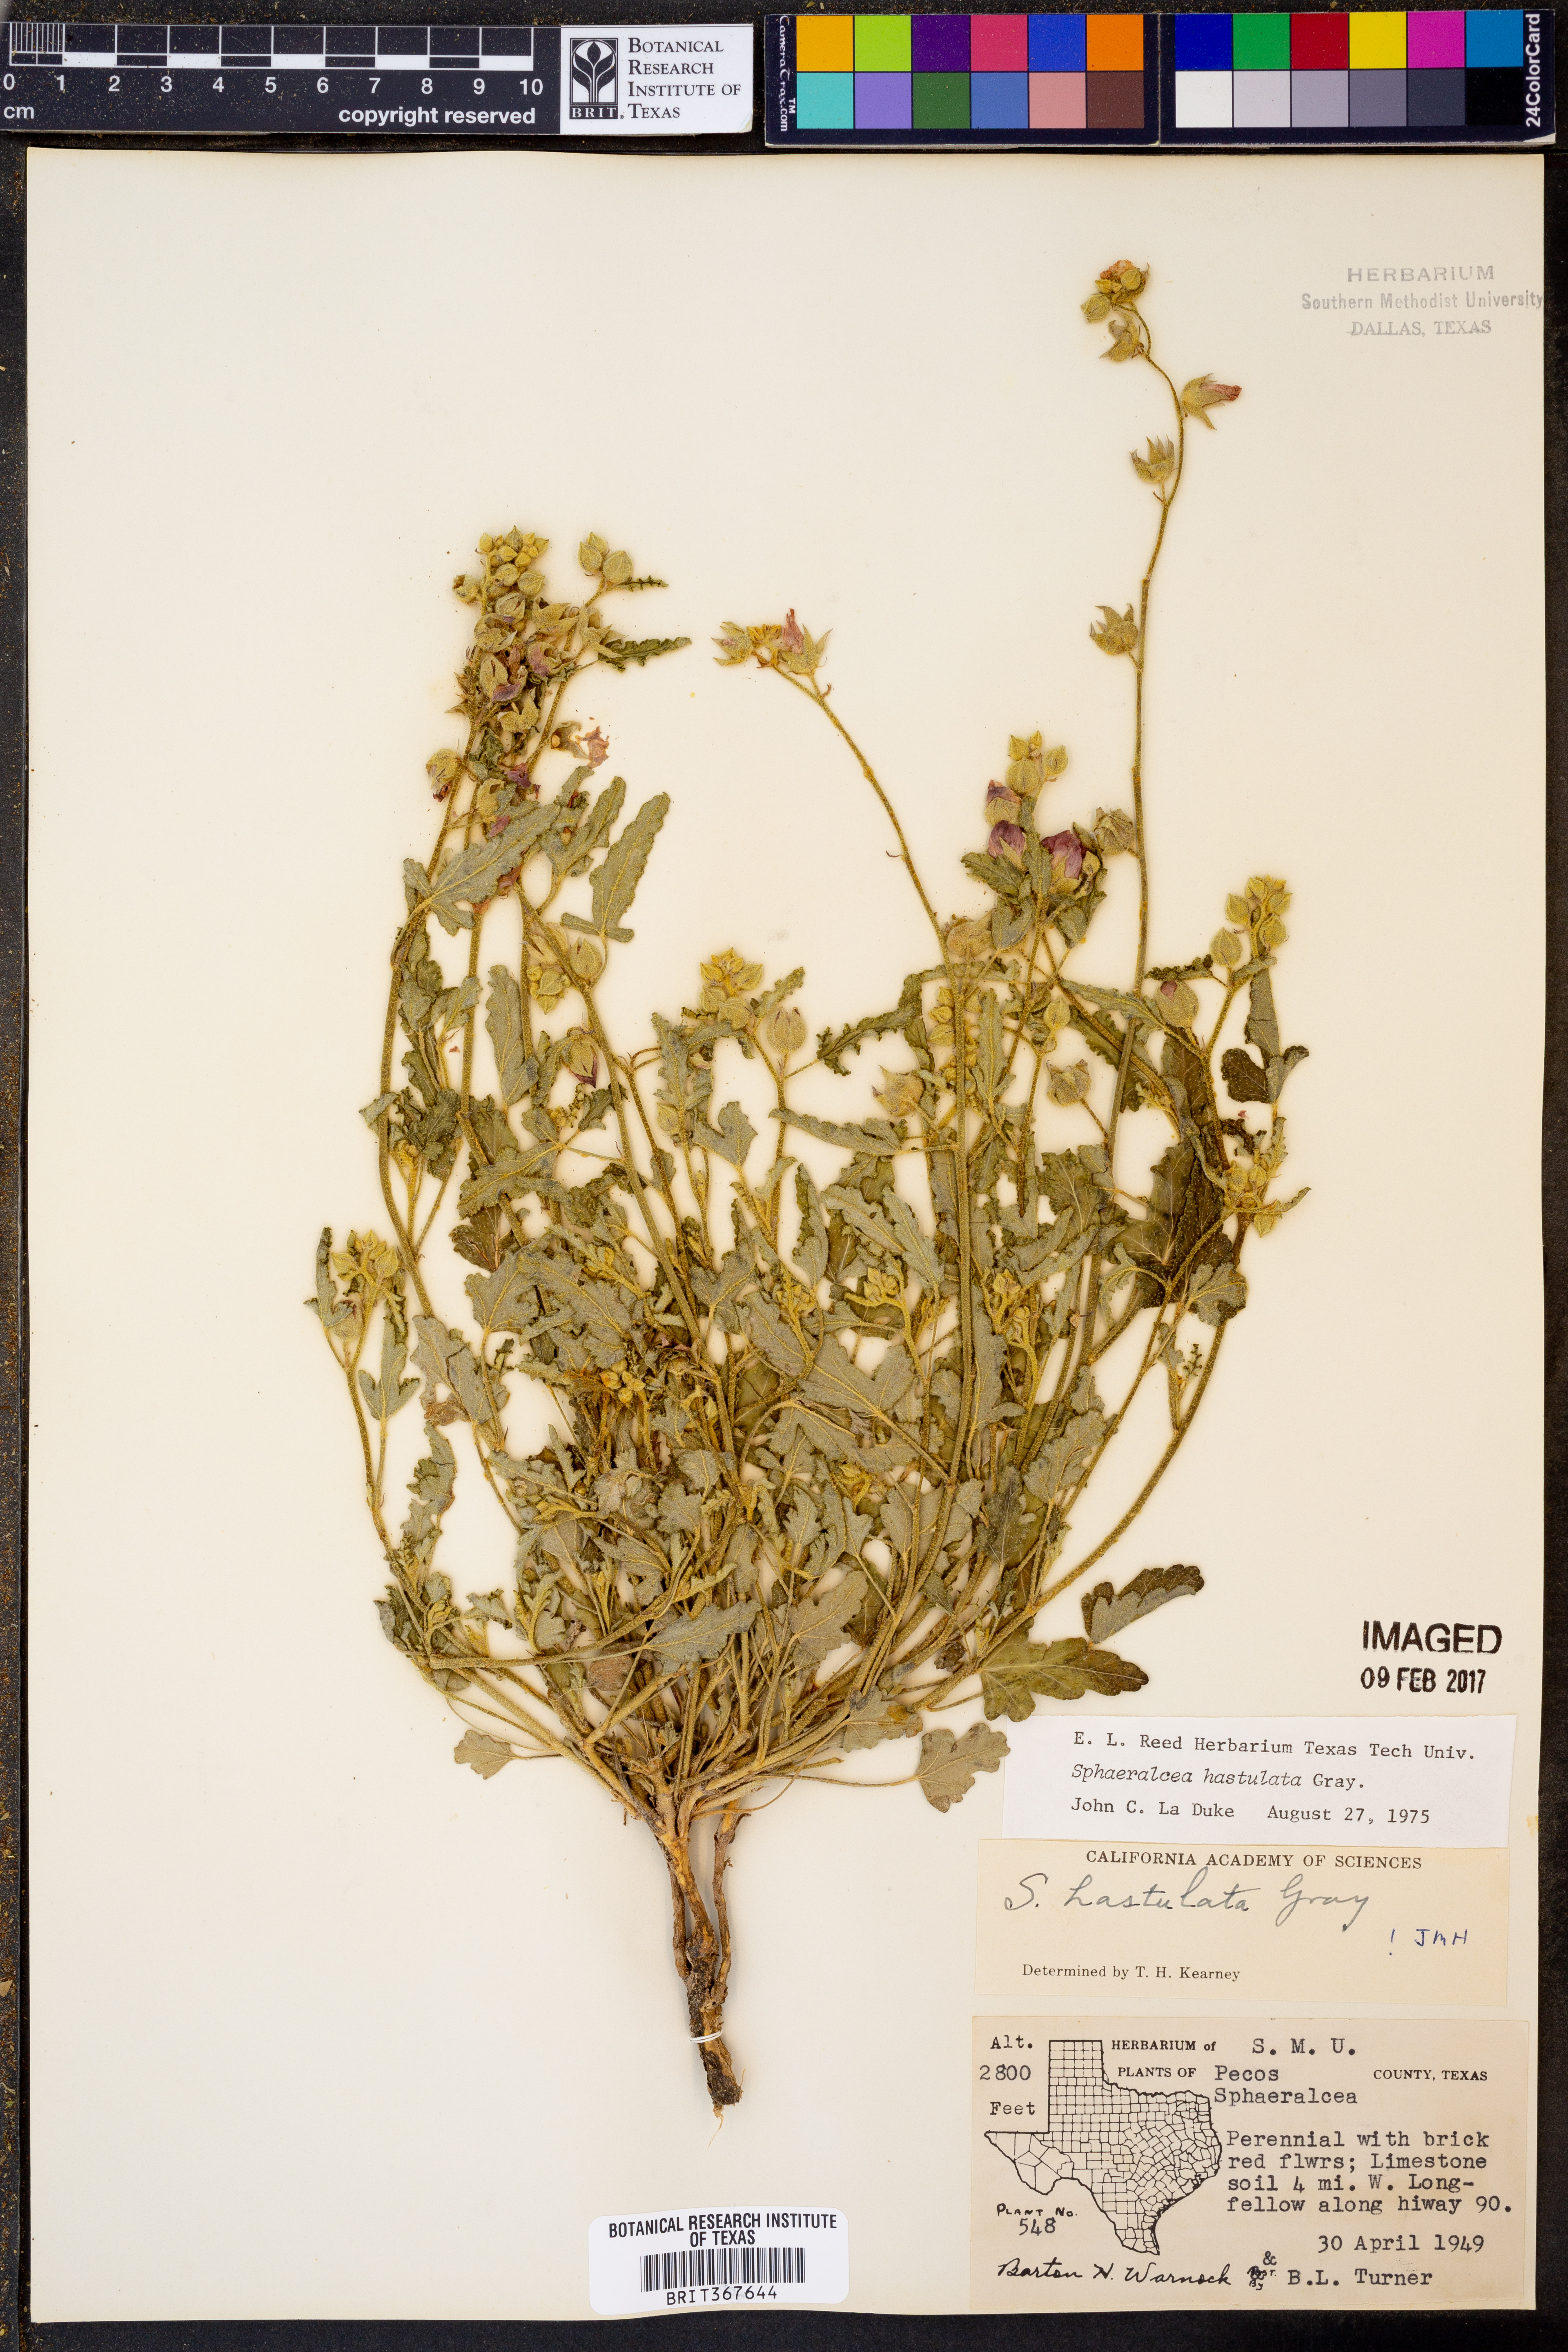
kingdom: Plantae
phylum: Tracheophyta
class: Magnoliopsida
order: Malvales
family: Malvaceae
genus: Sphaeralcea
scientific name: Sphaeralcea hastulata
